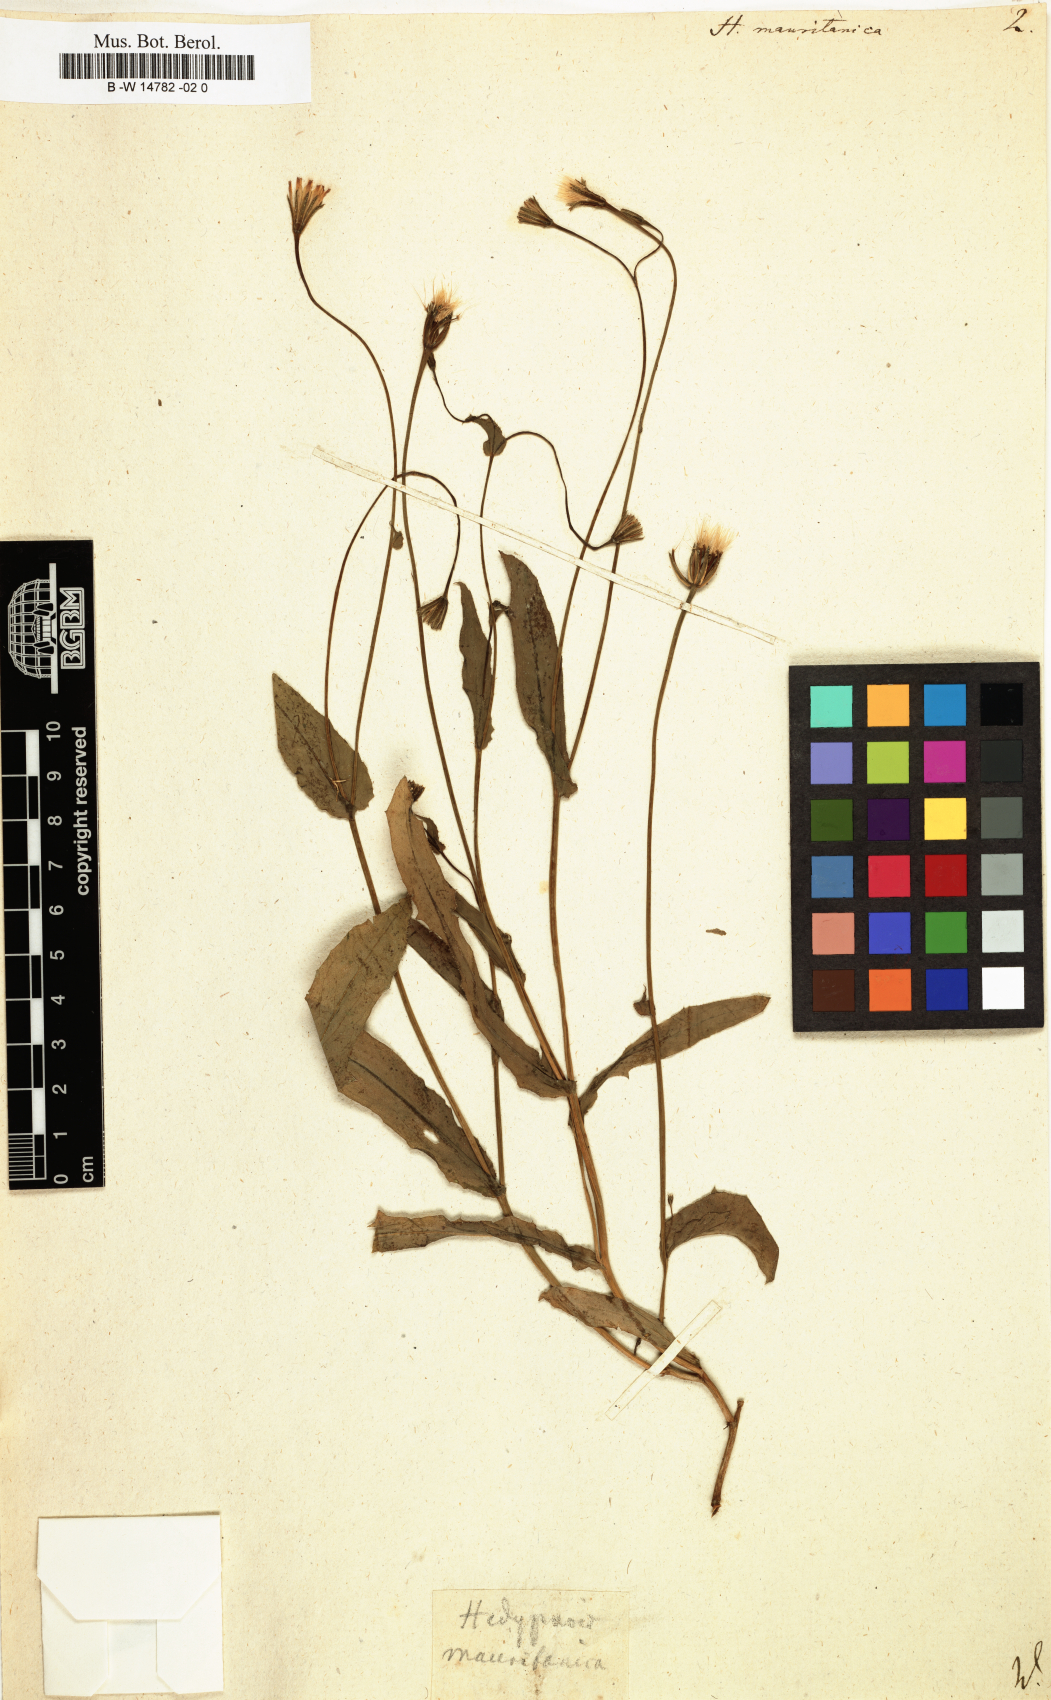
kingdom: Plantae
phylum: Tracheophyta
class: Magnoliopsida
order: Asterales
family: Asteraceae
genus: Hedypnois
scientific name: Hedypnois rhagadioloides
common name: Cretan weed
